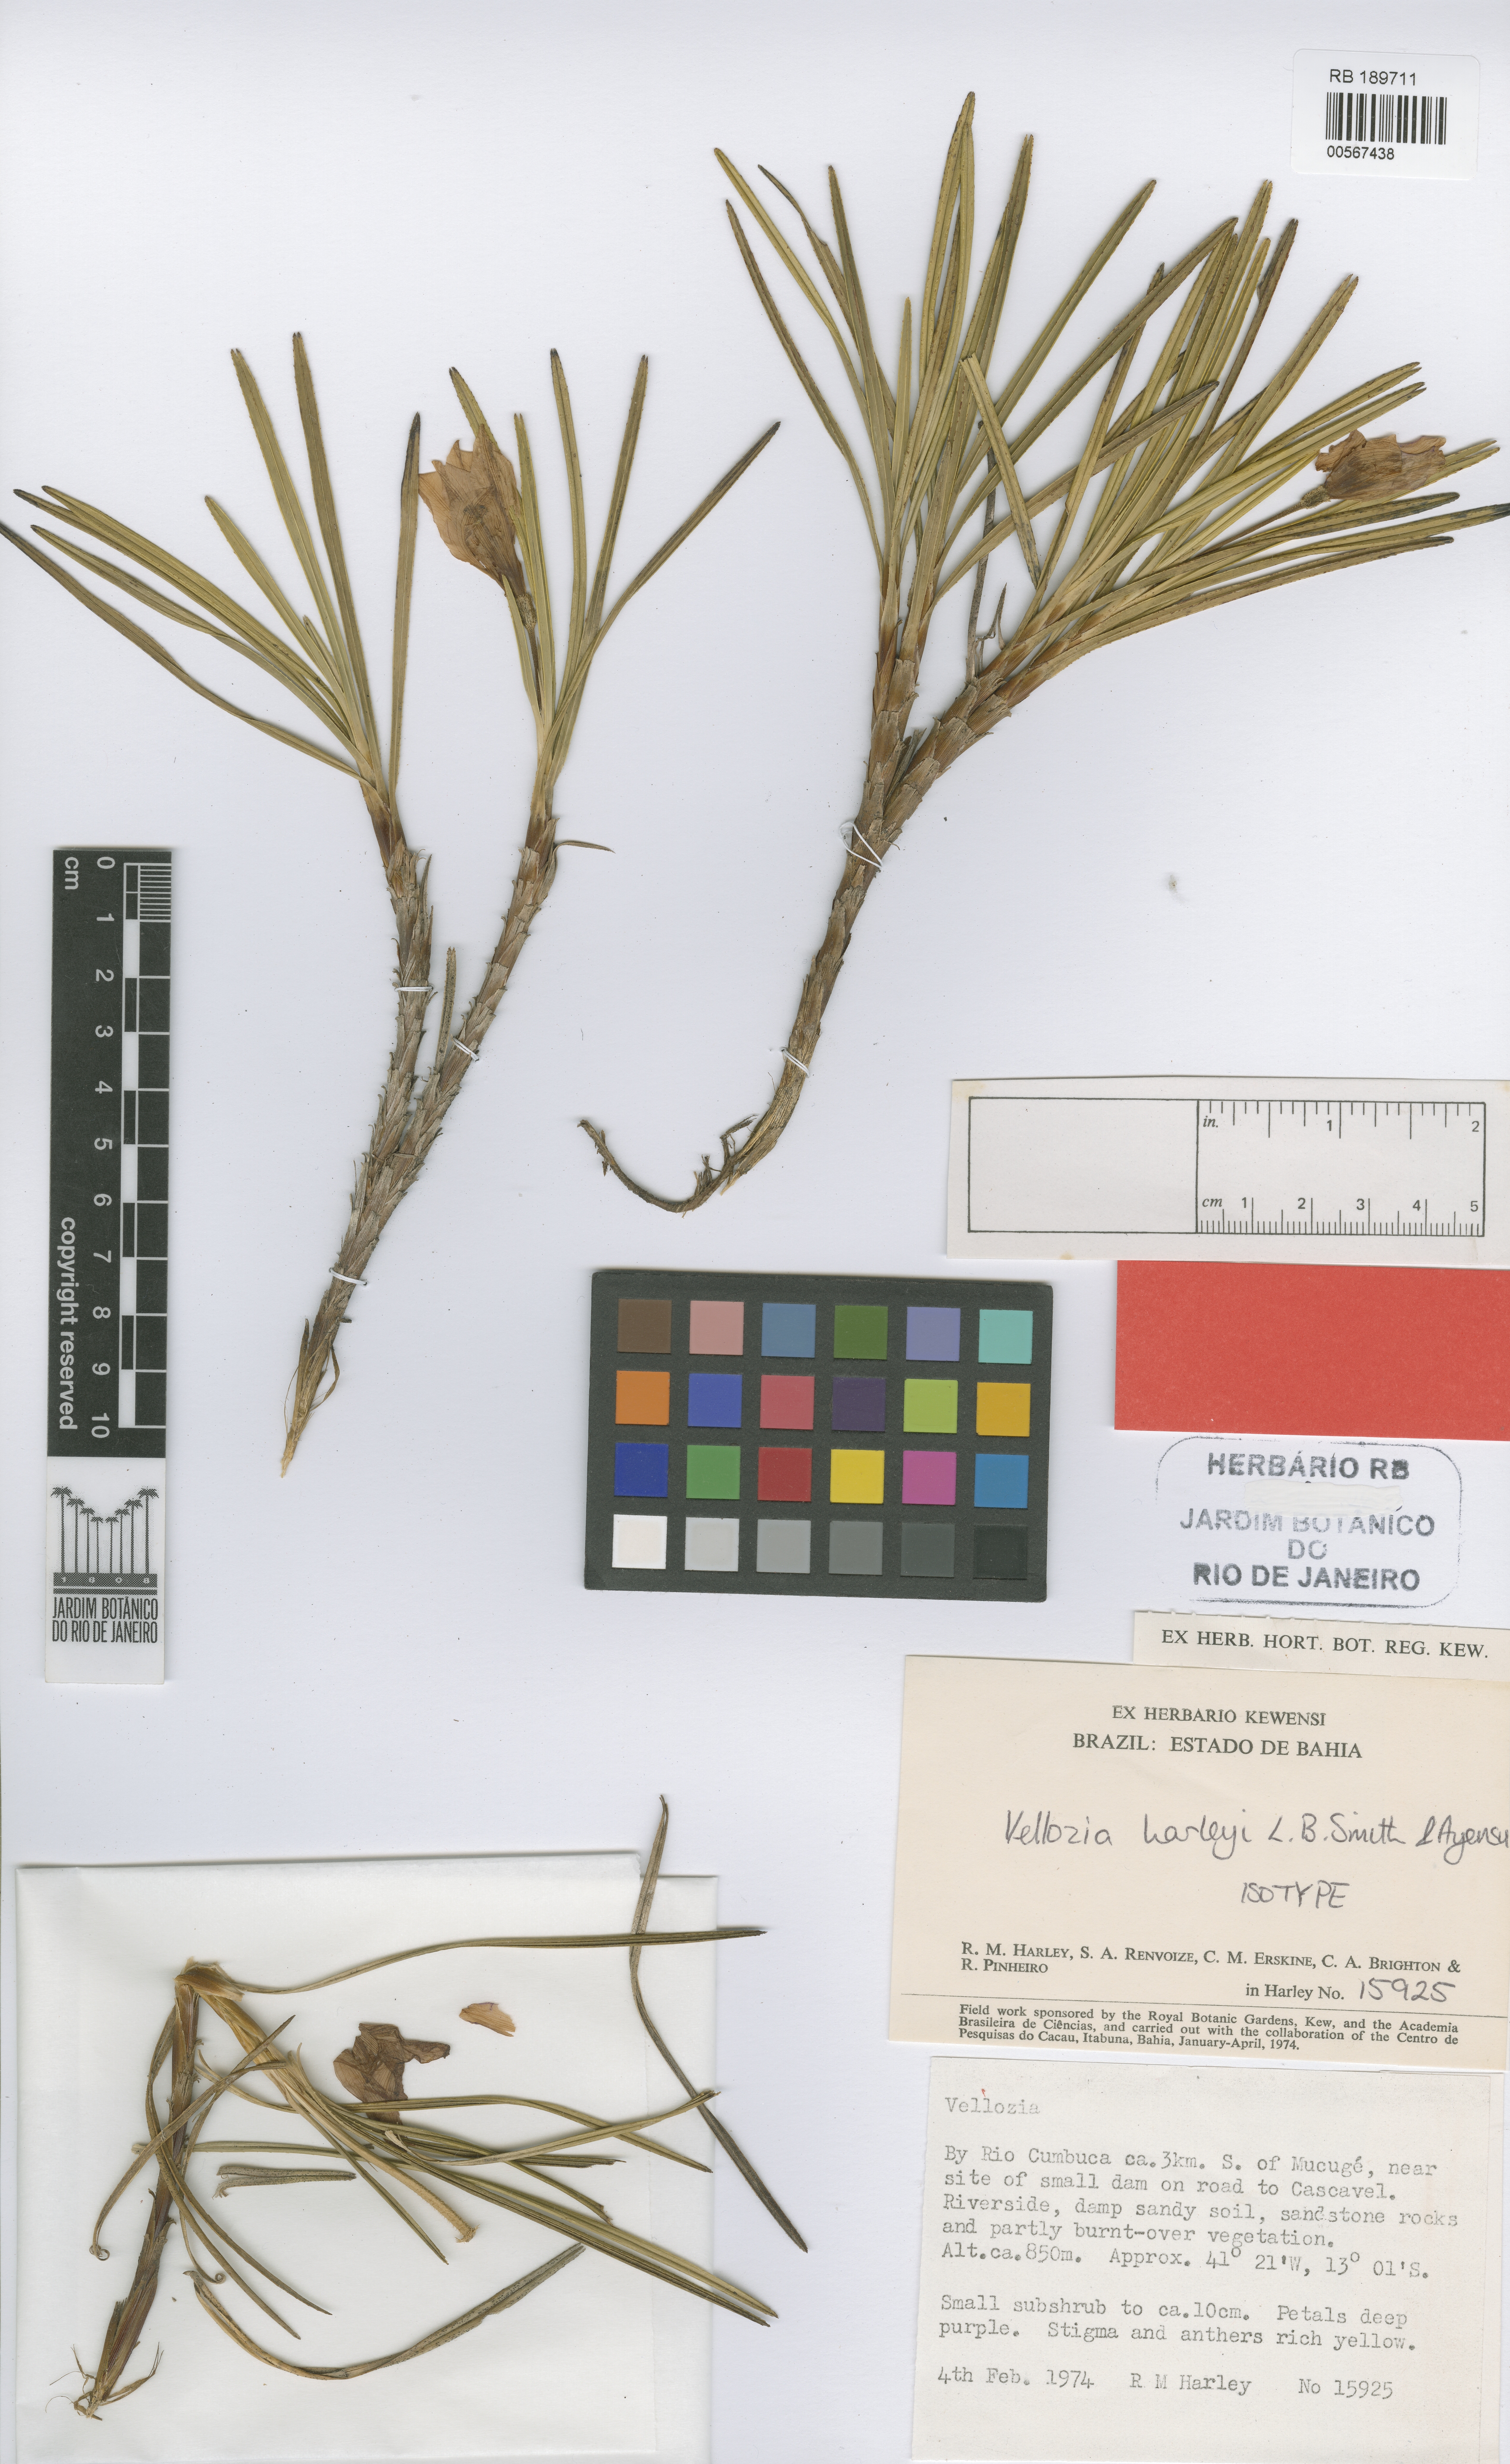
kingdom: Plantae
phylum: Tracheophyta
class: Liliopsida
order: Pandanales
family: Velloziaceae
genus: Vellozia
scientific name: Vellozia harleyi
